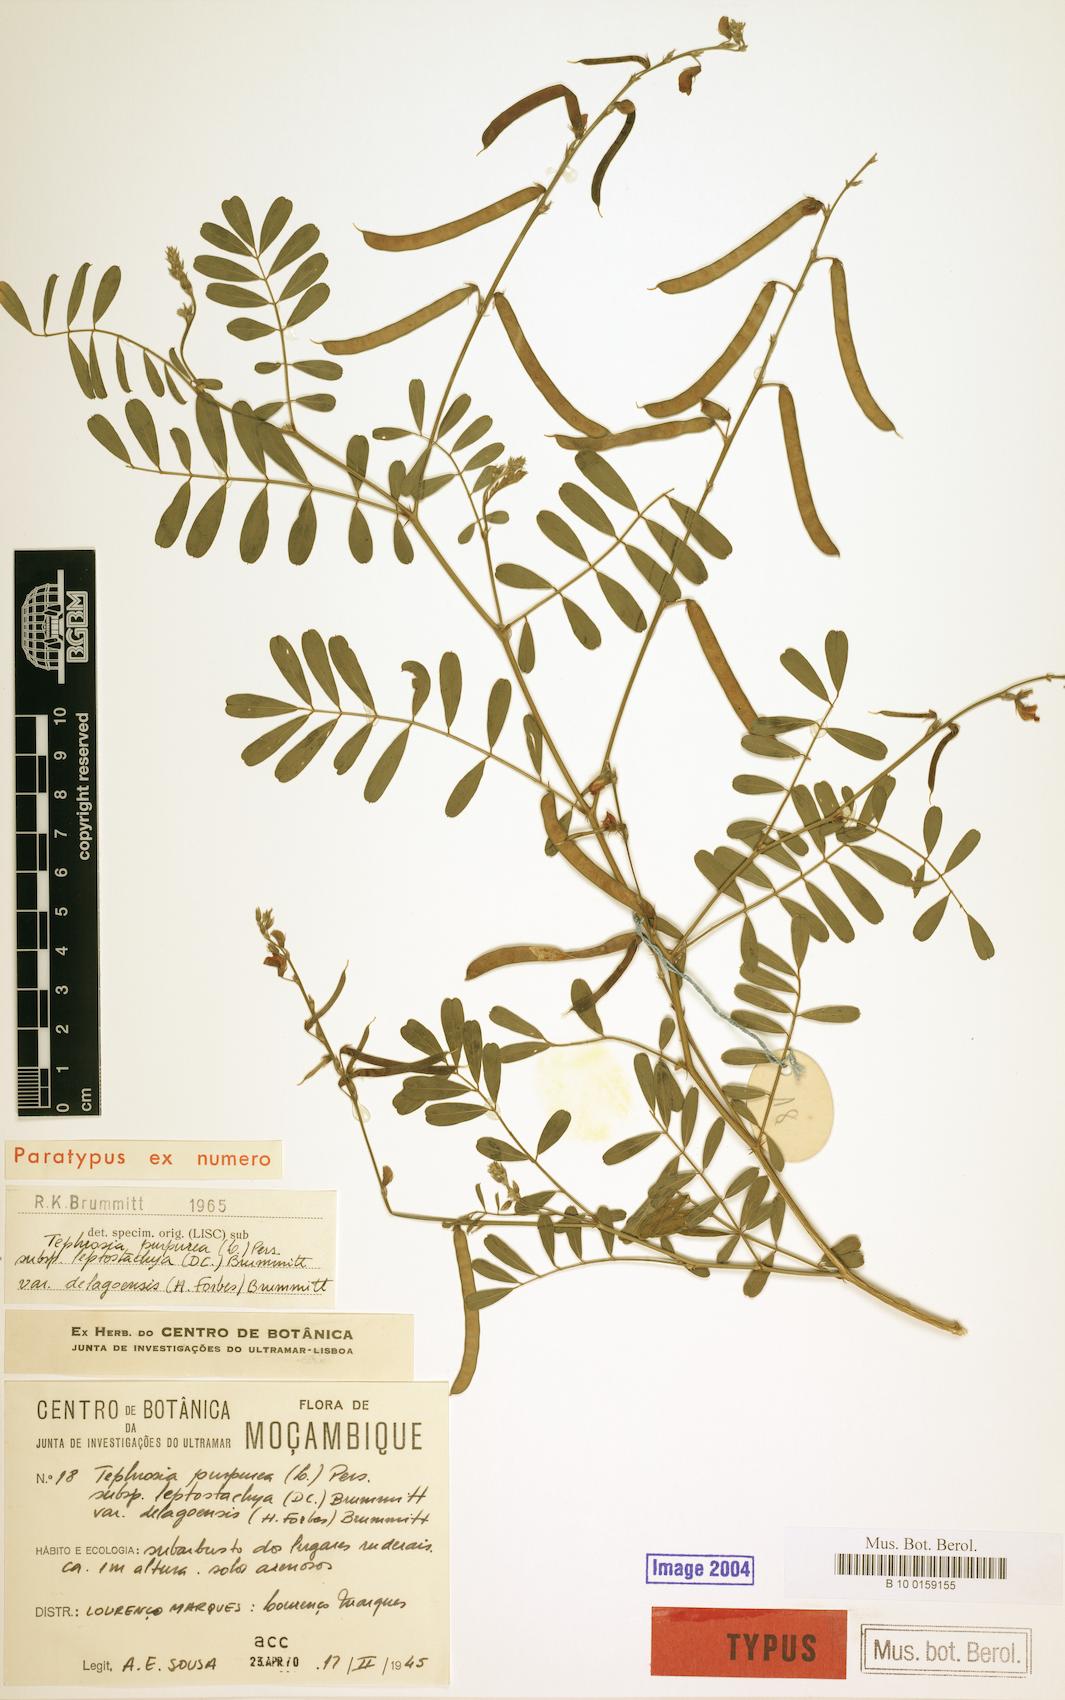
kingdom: Plantae
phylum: Tracheophyta
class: Magnoliopsida
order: Fabales
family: Fabaceae
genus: Tephrosia
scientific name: Tephrosia purpurea
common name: Fishpoison
